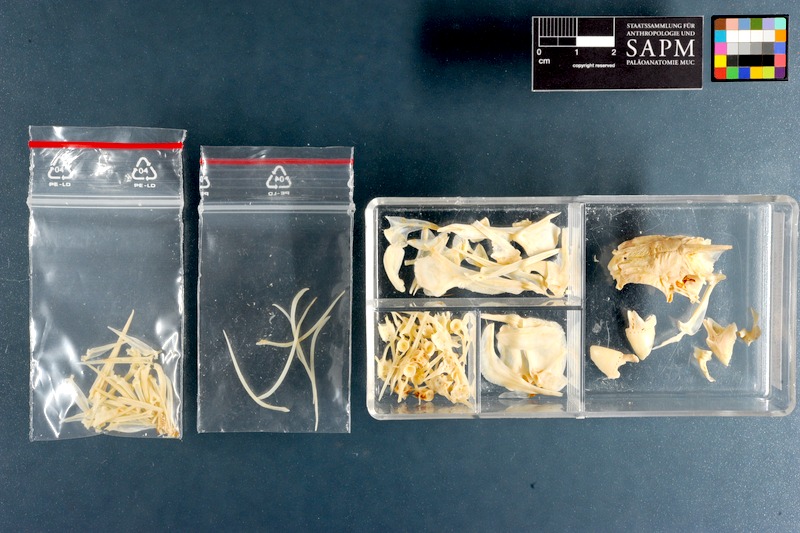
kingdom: Animalia
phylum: Chordata
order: Perciformes
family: Monodactylidae
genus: Monodactylus
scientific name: Monodactylus falciformis
